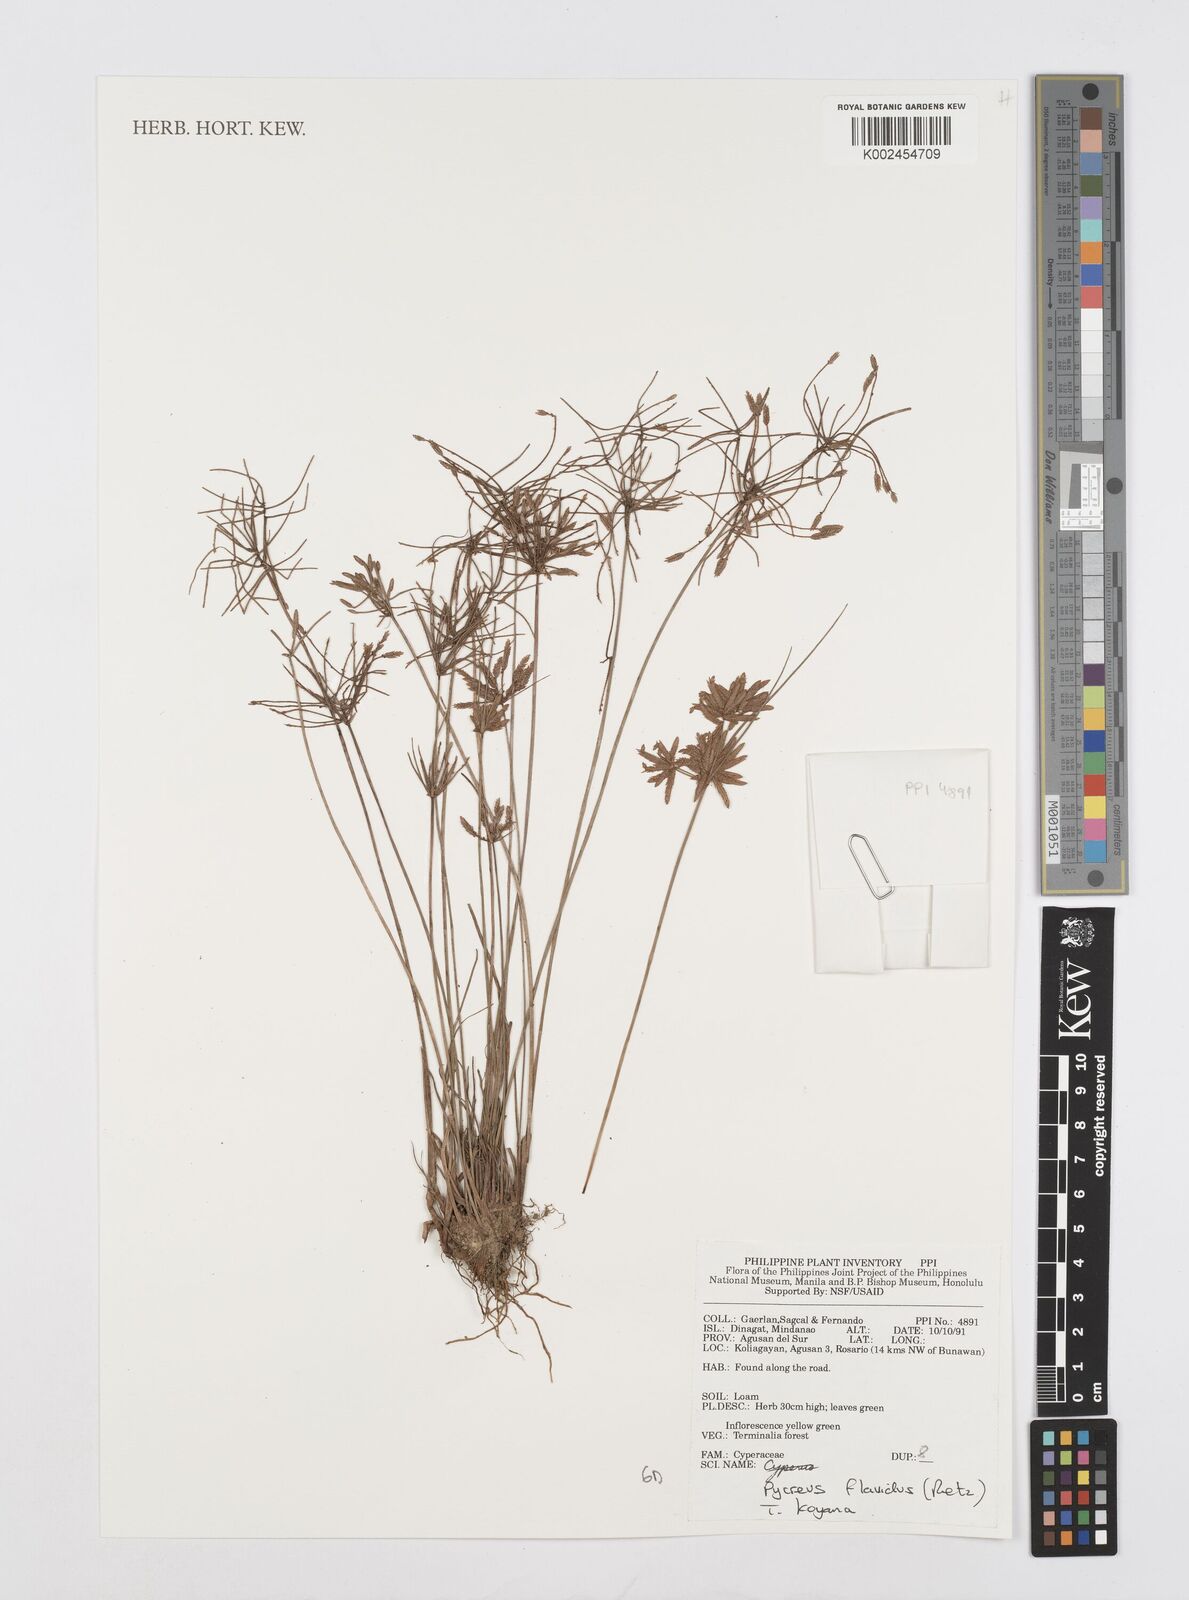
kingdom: Plantae
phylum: Tracheophyta
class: Liliopsida
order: Poales
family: Cyperaceae
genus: Cyperus
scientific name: Cyperus flavidus
